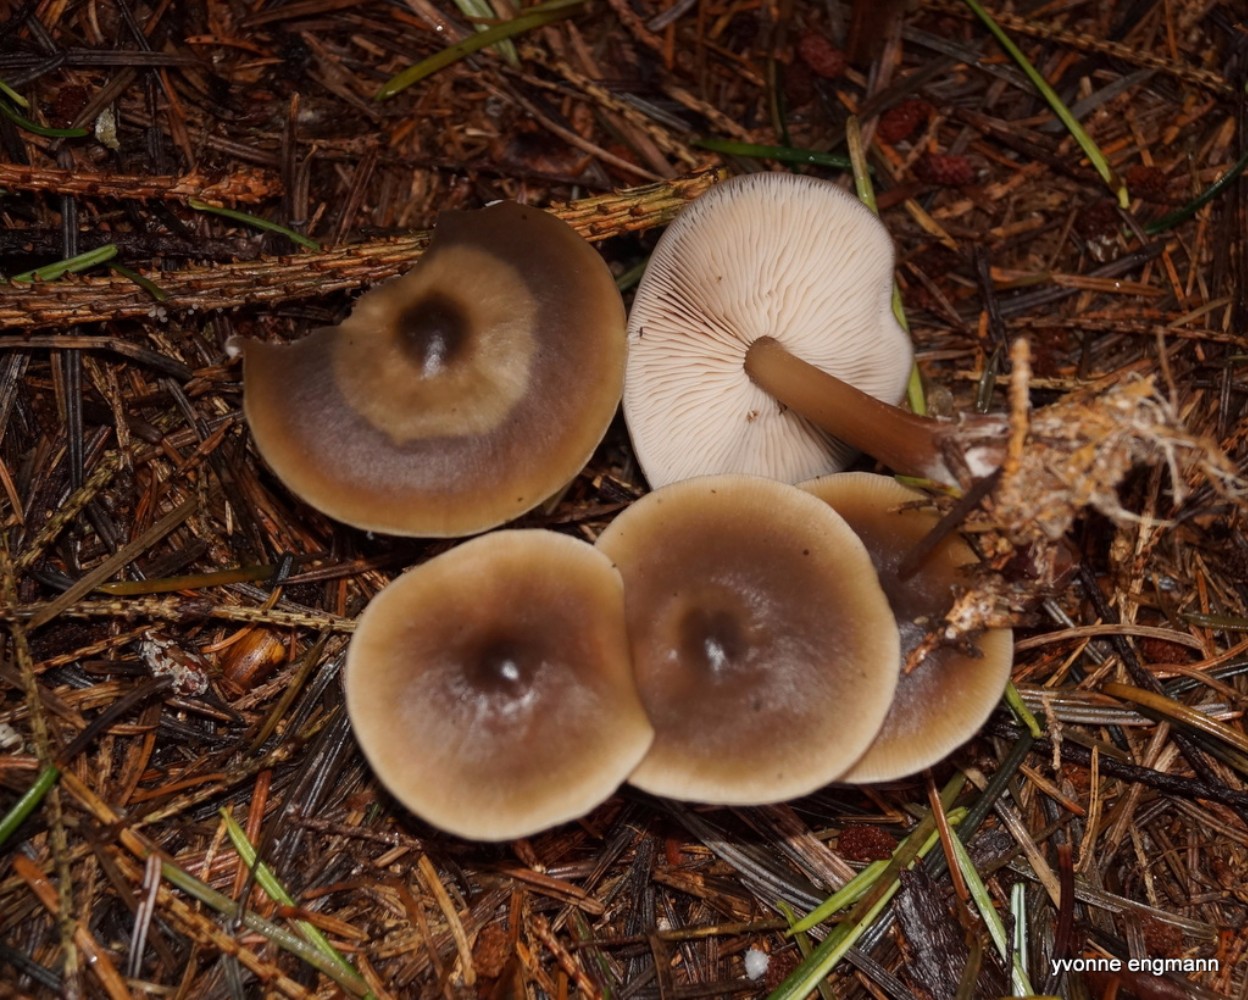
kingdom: Fungi
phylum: Basidiomycota
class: Agaricomycetes
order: Agaricales
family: Omphalotaceae
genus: Rhodocollybia
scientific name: Rhodocollybia asema
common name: horngrå fladhat
